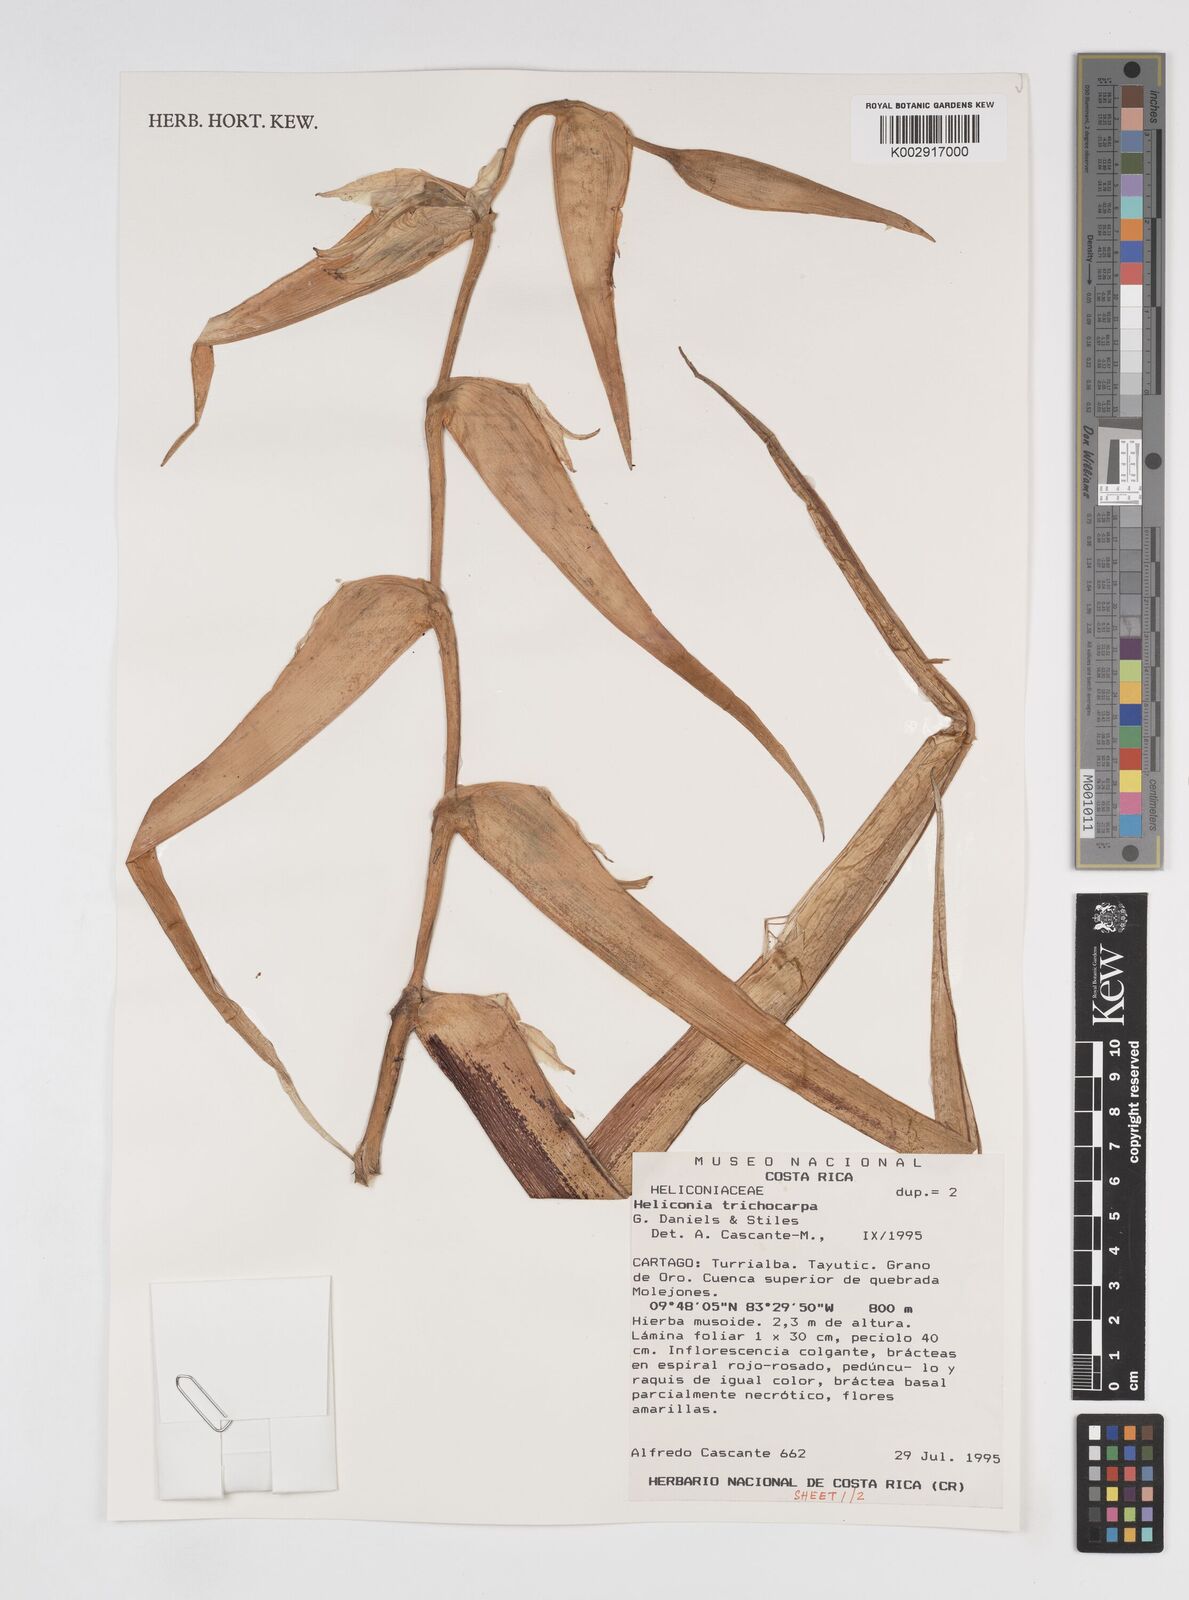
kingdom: Plantae
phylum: Tracheophyta
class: Liliopsida
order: Zingiberales
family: Heliconiaceae
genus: Heliconia
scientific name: Heliconia trichocarpa
